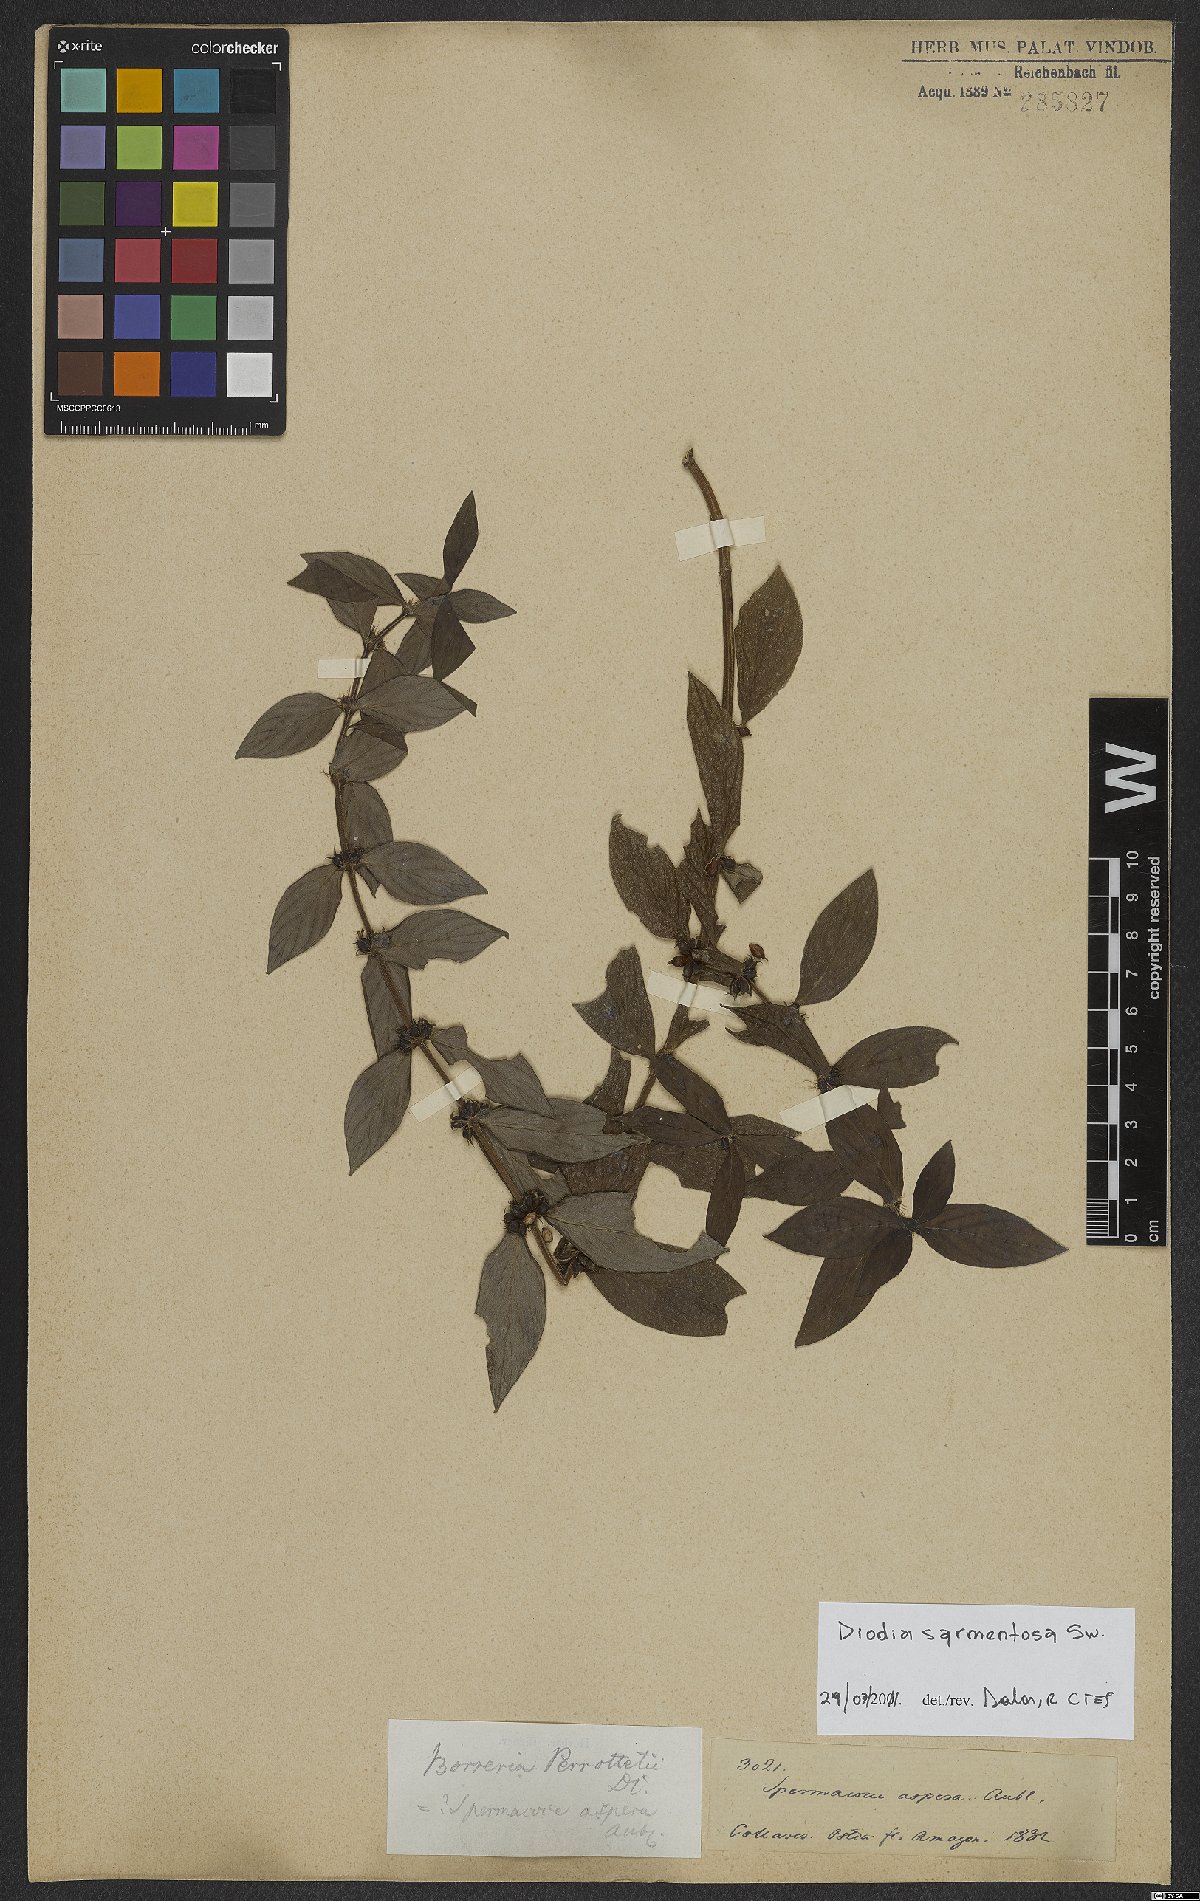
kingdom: Plantae
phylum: Tracheophyta
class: Magnoliopsida
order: Gentianales
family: Rubiaceae
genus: Hexasepalum
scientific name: Hexasepalum sarmentosum
